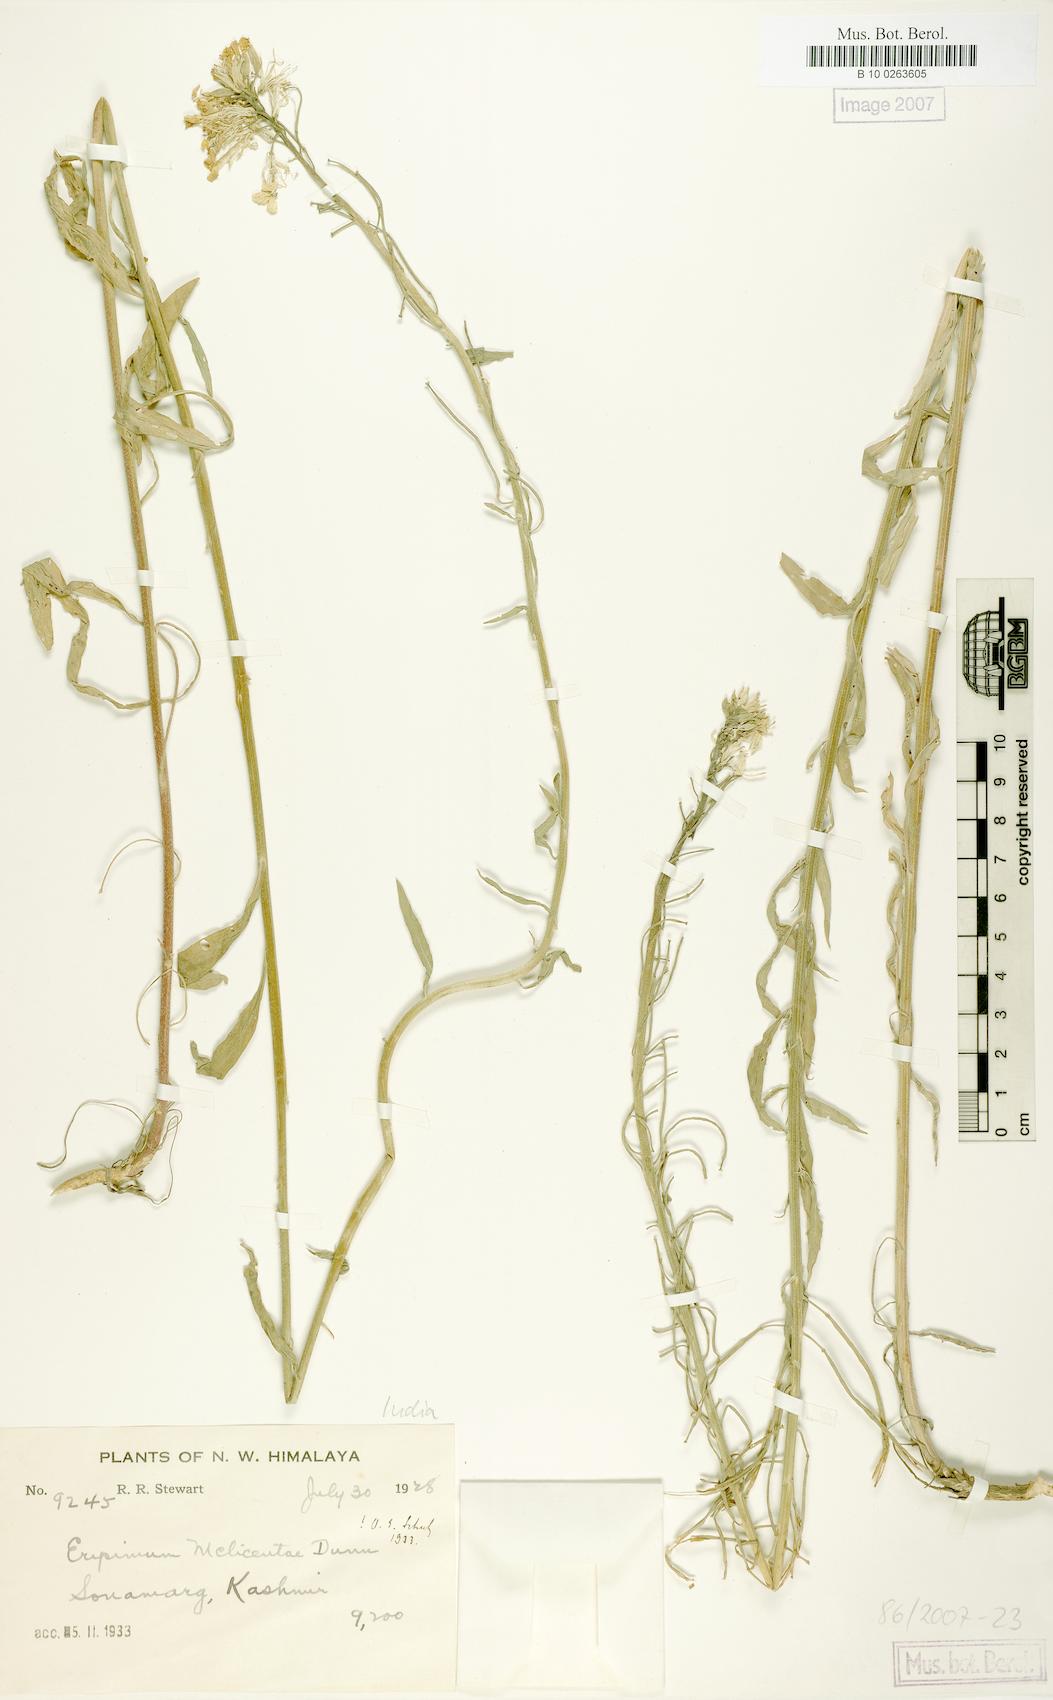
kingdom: Plantae
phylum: Tracheophyta
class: Magnoliopsida
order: Brassicales
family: Brassicaceae
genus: Erysimum
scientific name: Erysimum melicentae
